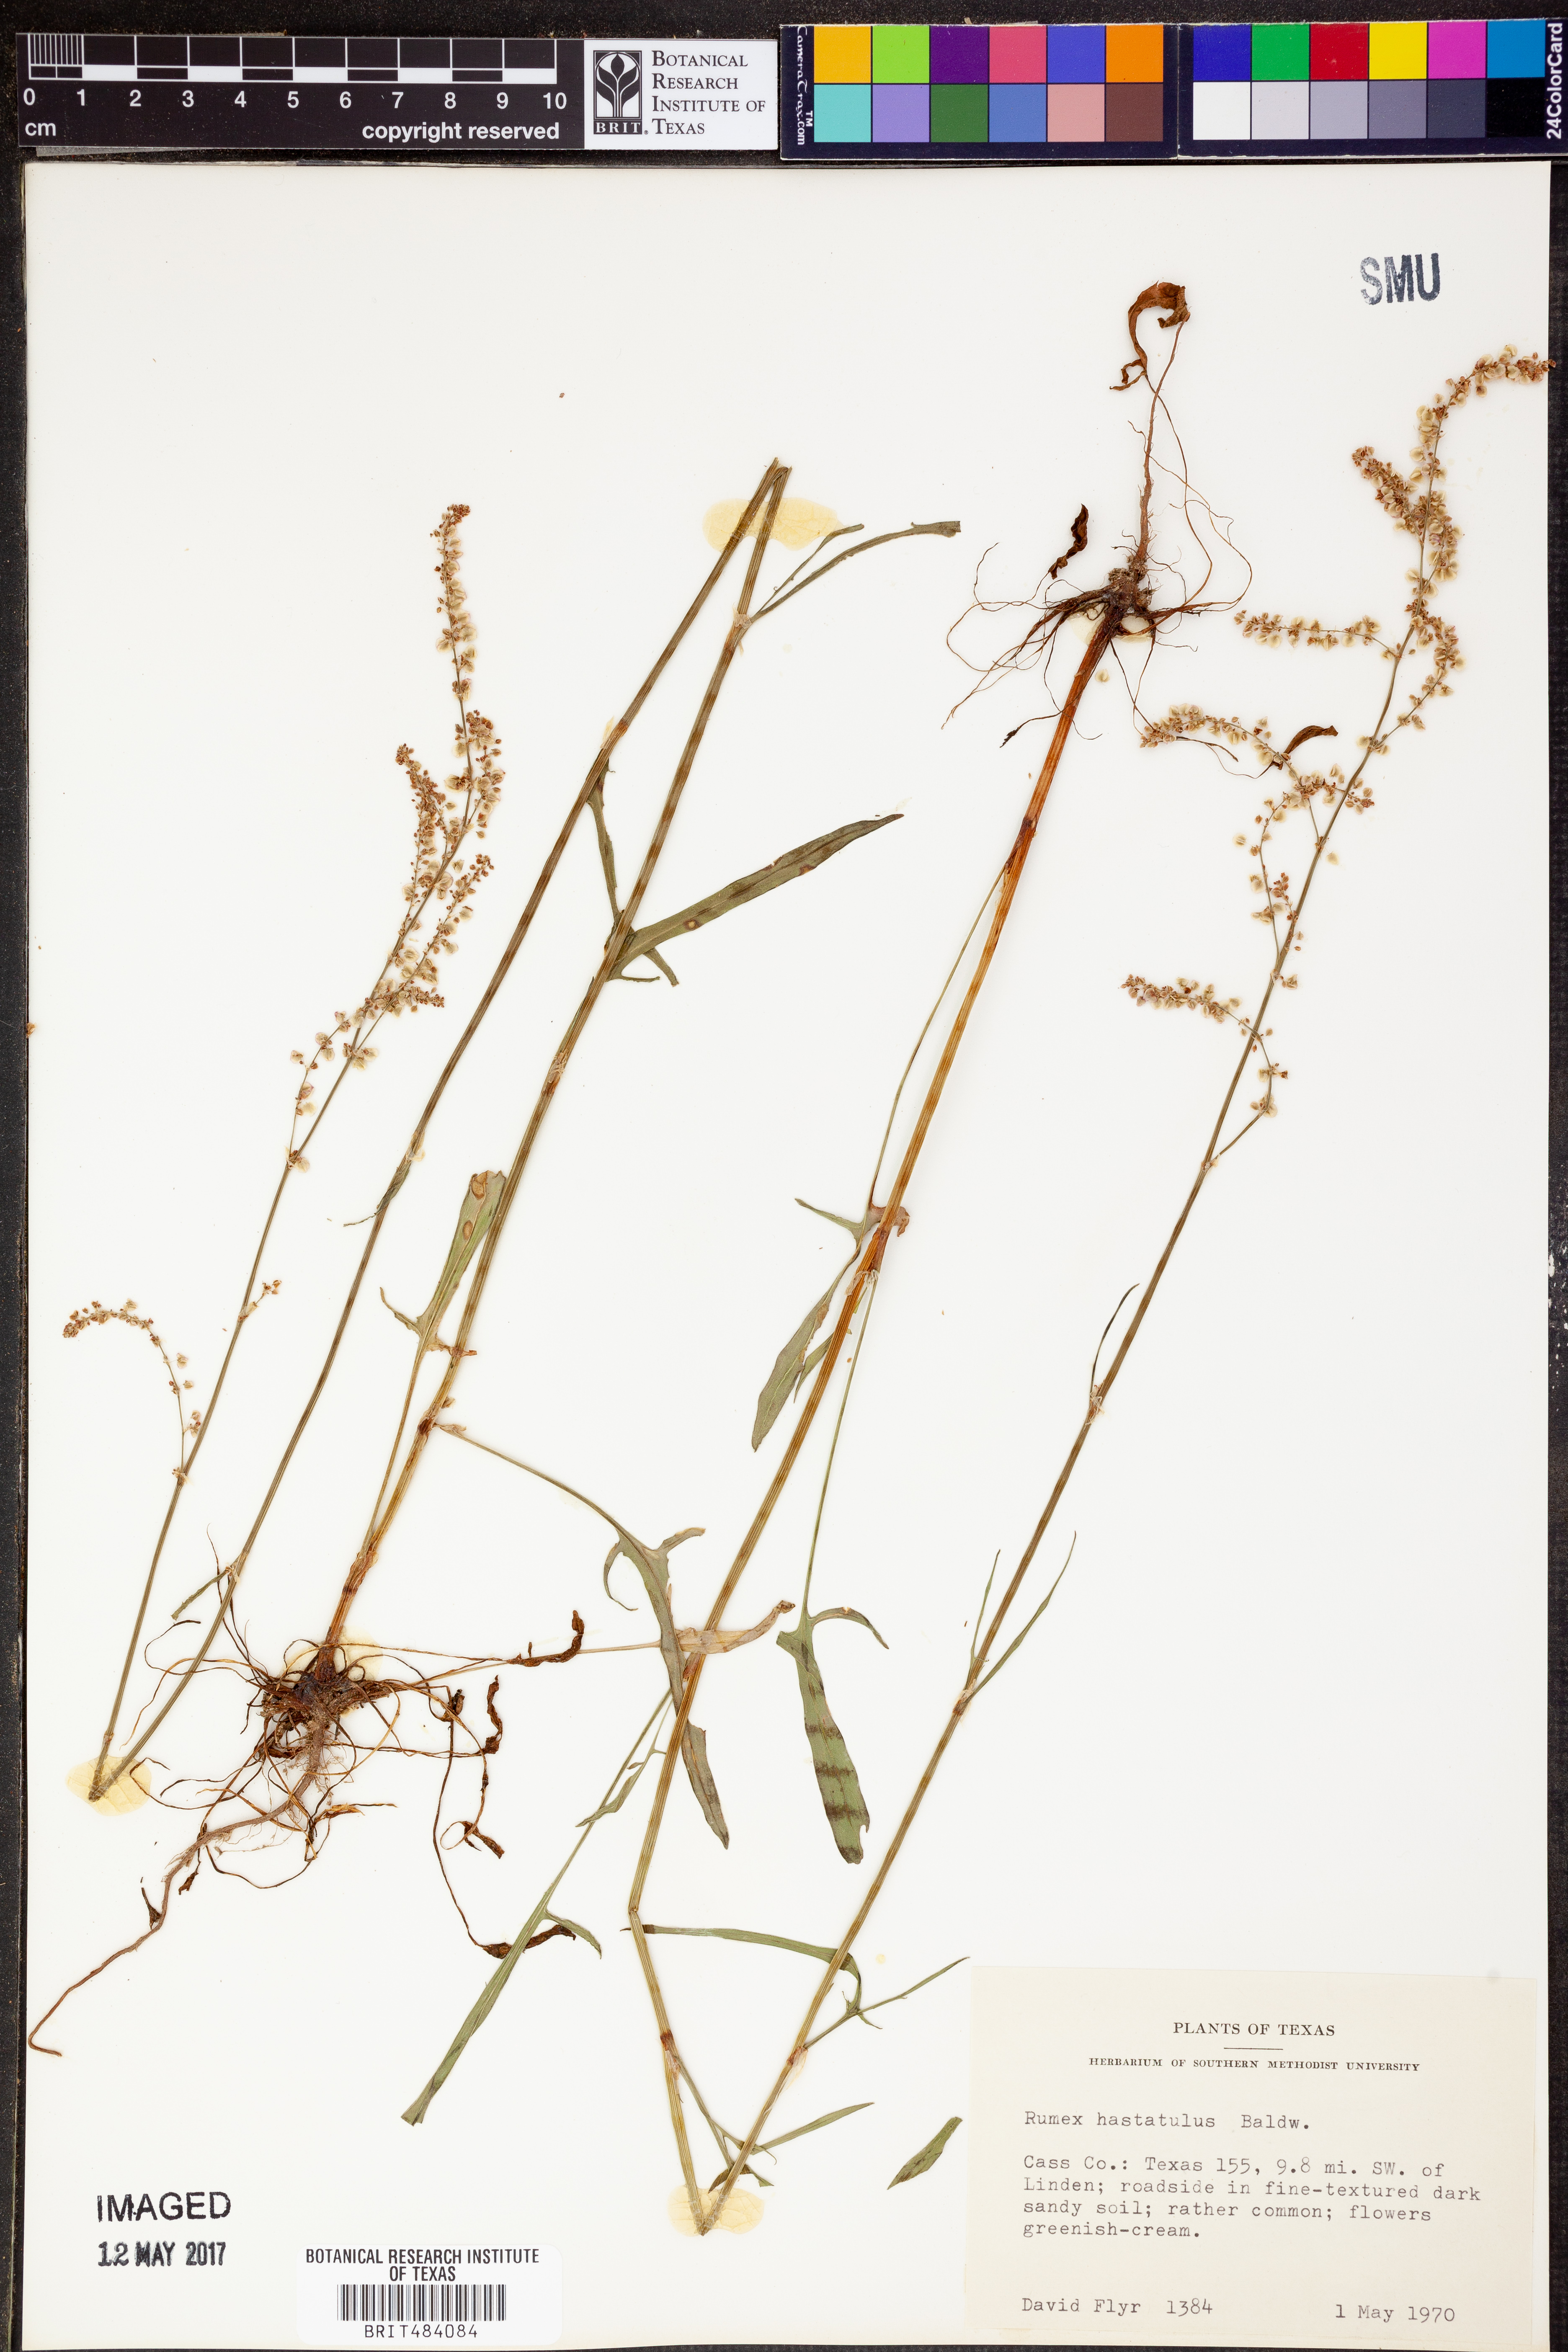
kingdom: Plantae
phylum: Tracheophyta
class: Magnoliopsida
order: Caryophyllales
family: Polygonaceae
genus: Rumex
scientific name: Rumex hastatulus
